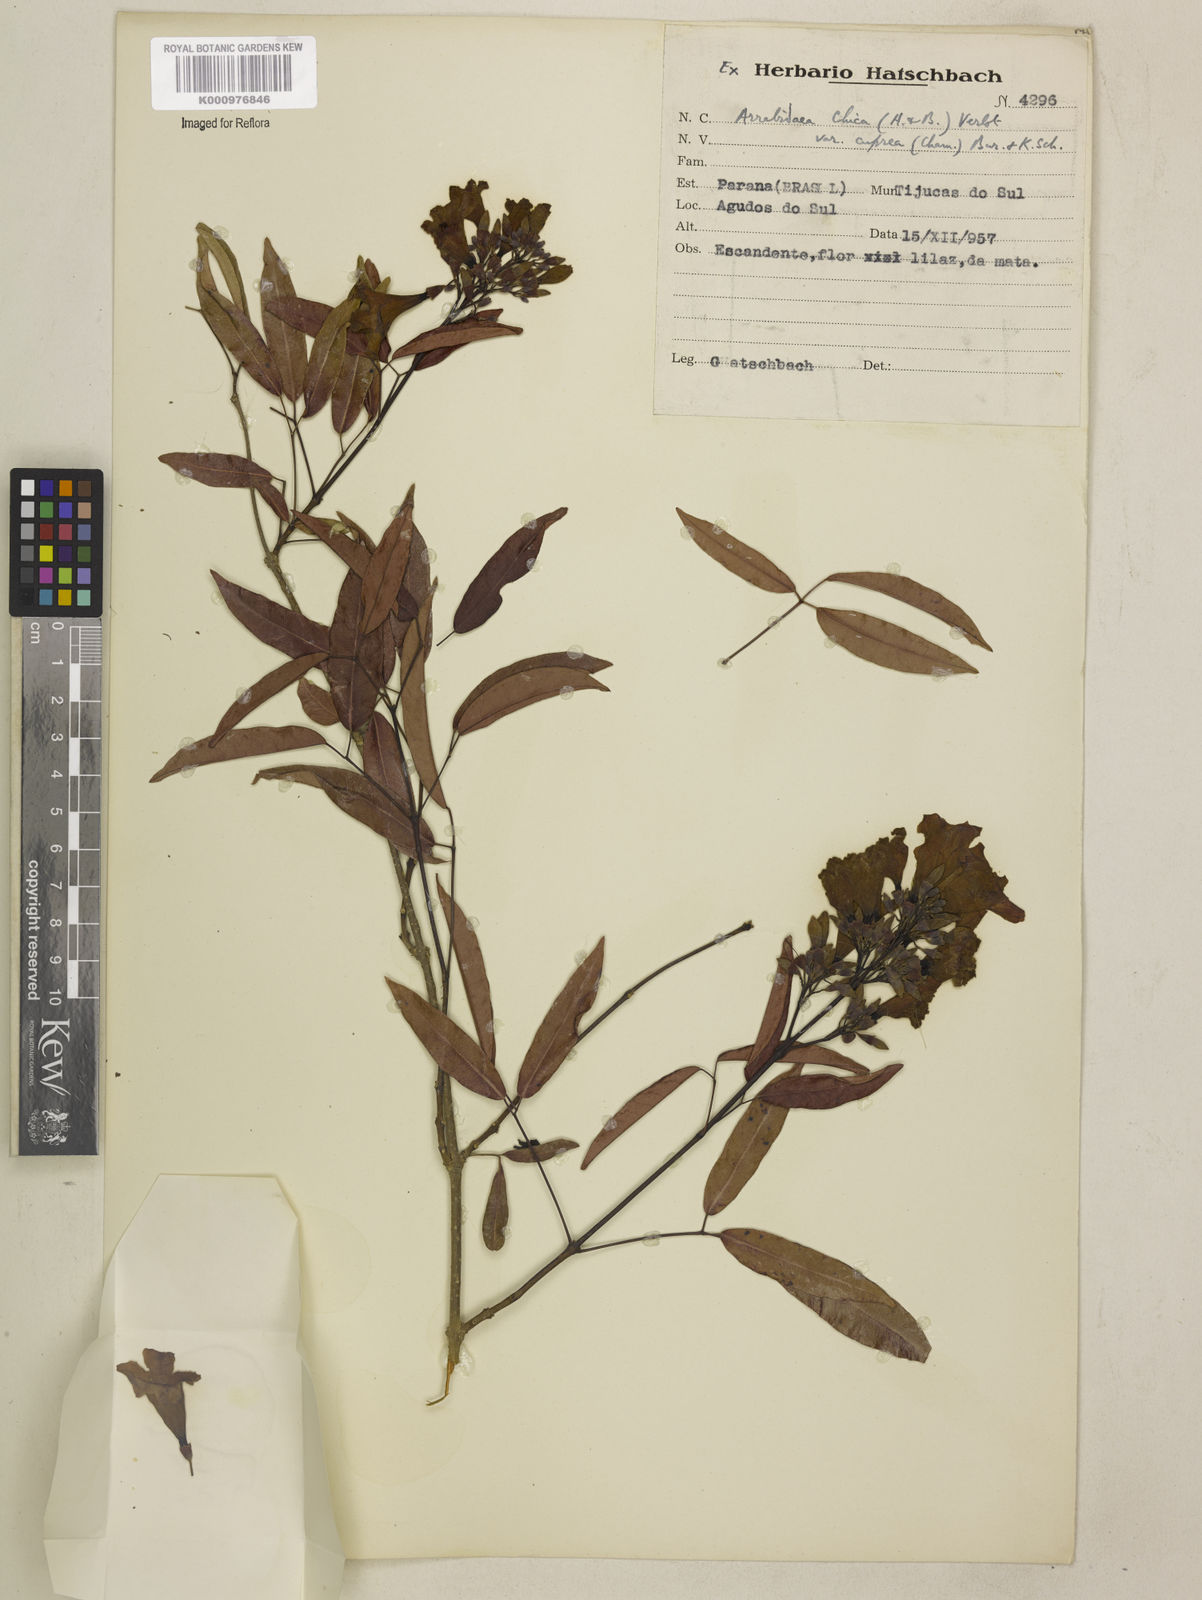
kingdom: Plantae
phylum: Tracheophyta
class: Magnoliopsida
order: Lamiales
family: Bignoniaceae
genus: Fridericia
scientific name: Fridericia chica
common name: Cricketvine
